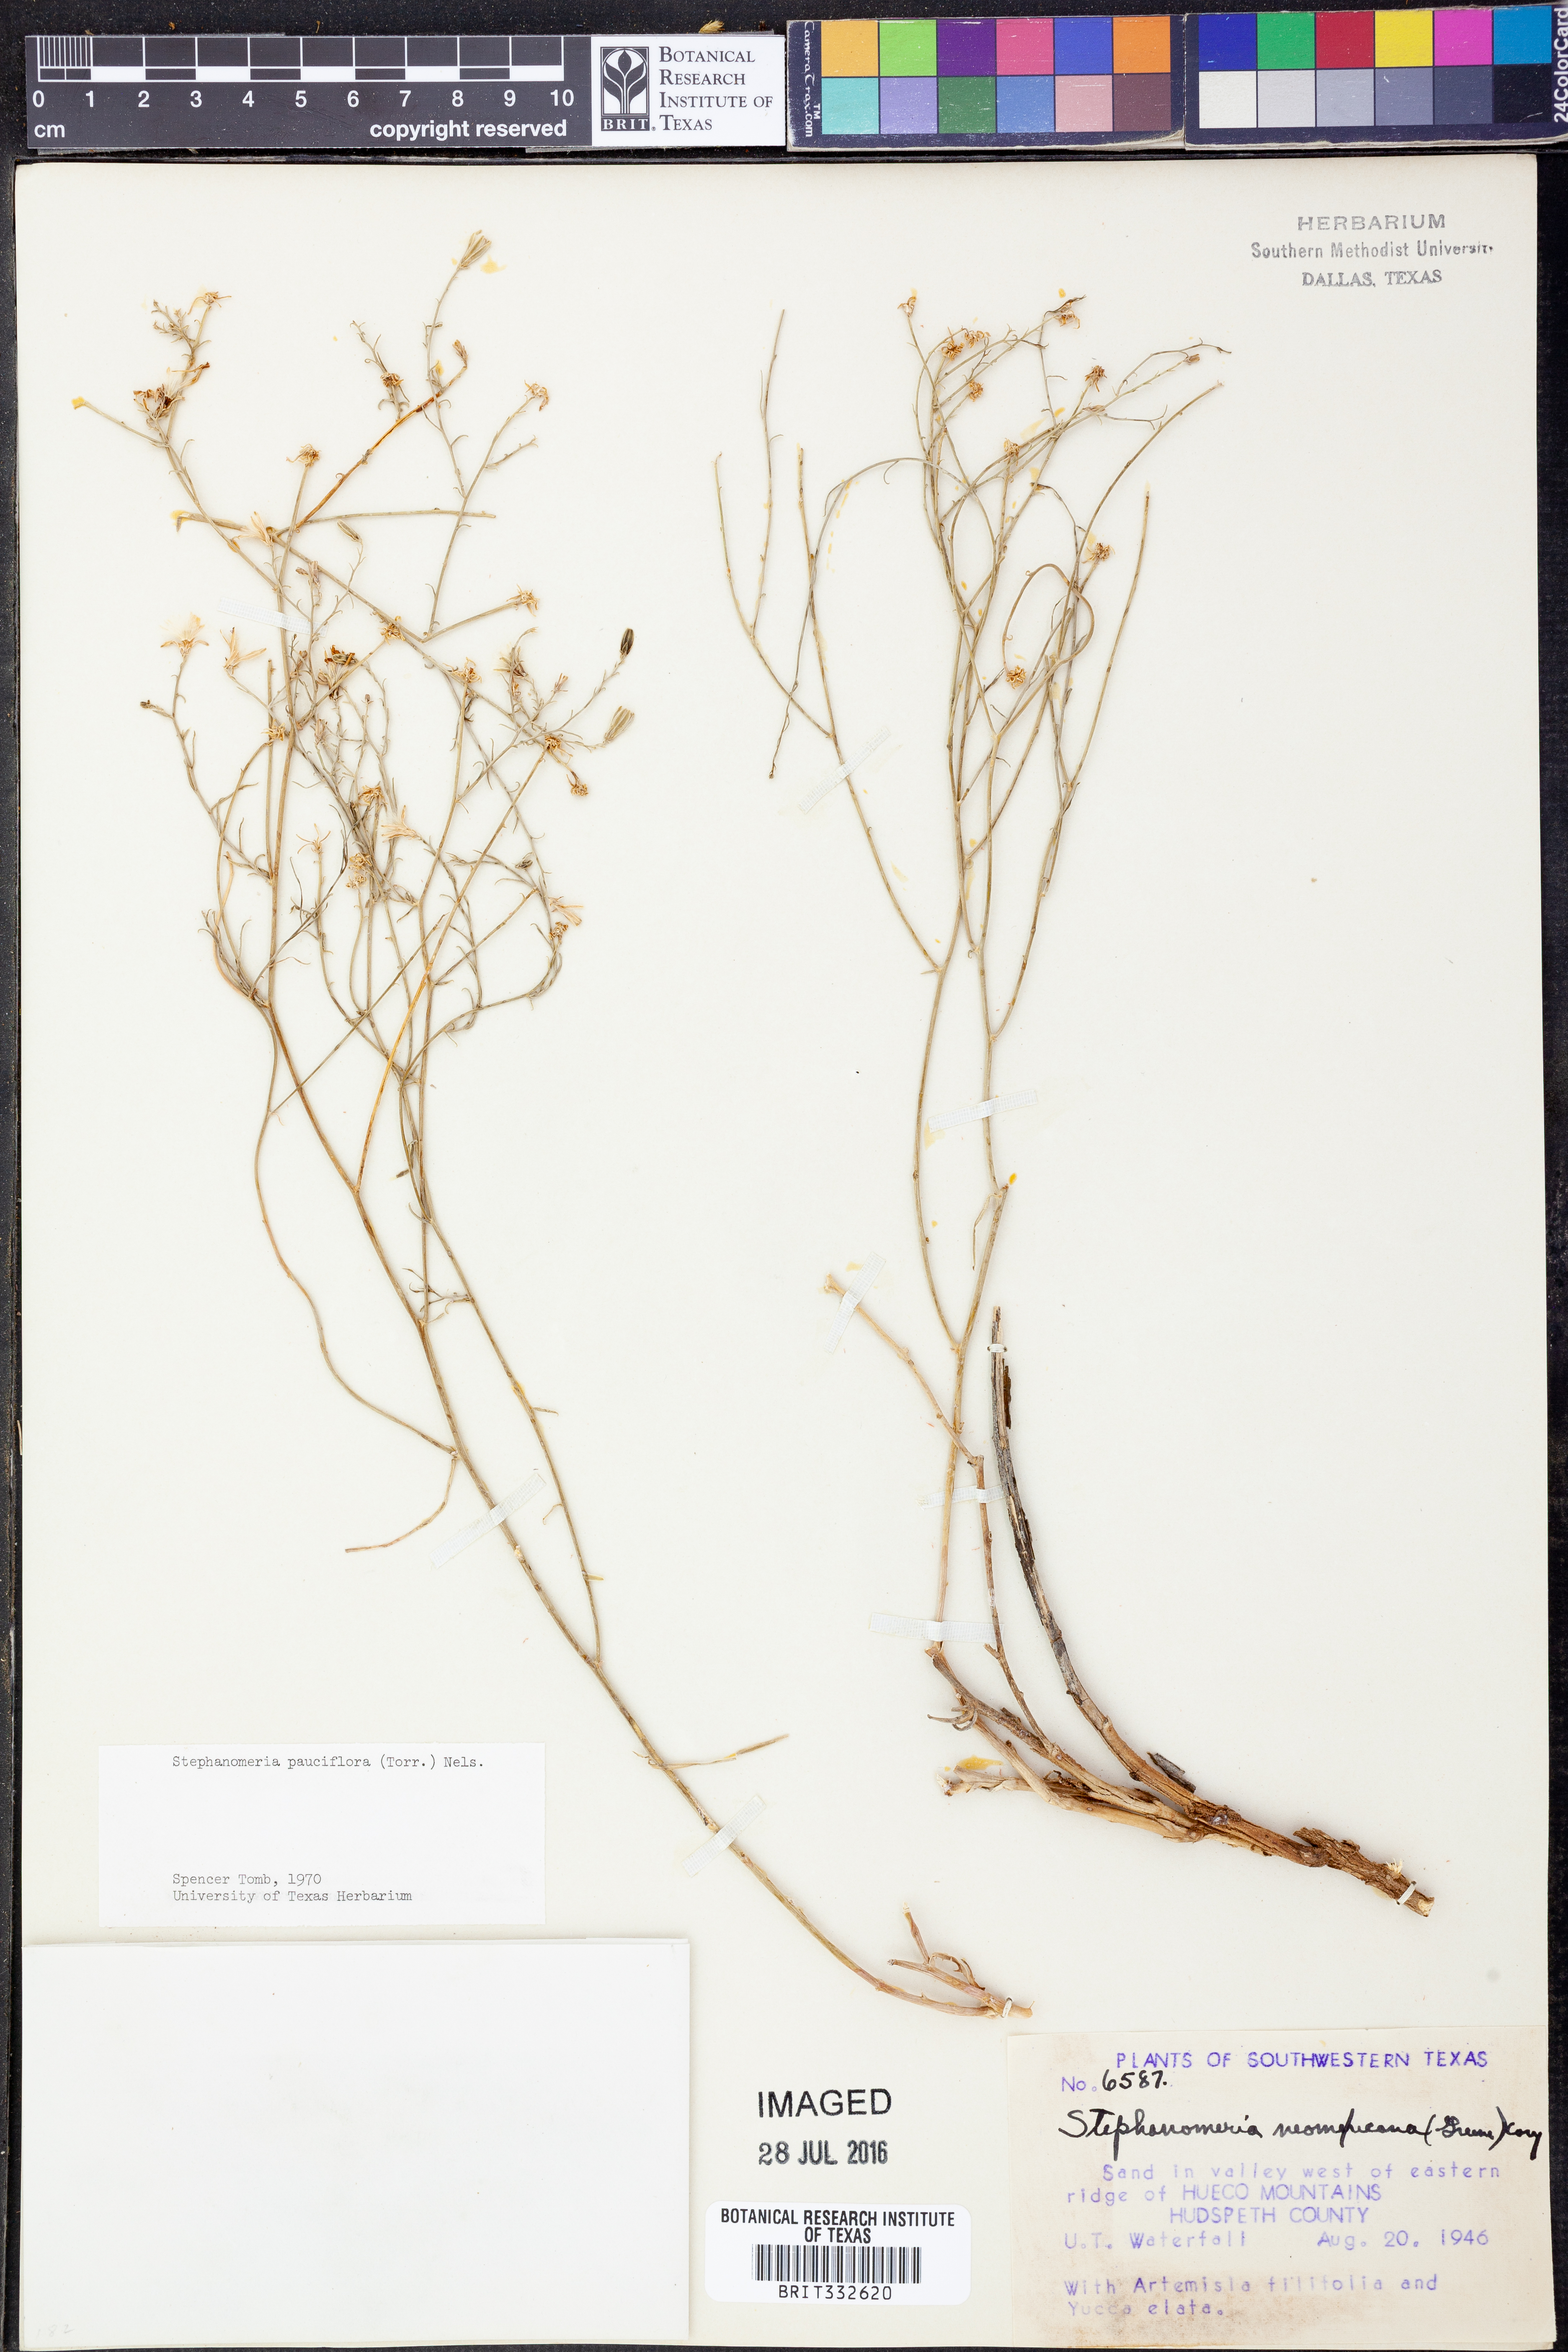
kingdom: Plantae
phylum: Tracheophyta
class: Magnoliopsida
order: Asterales
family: Asteraceae
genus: Stephanomeria
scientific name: Stephanomeria pauciflora
